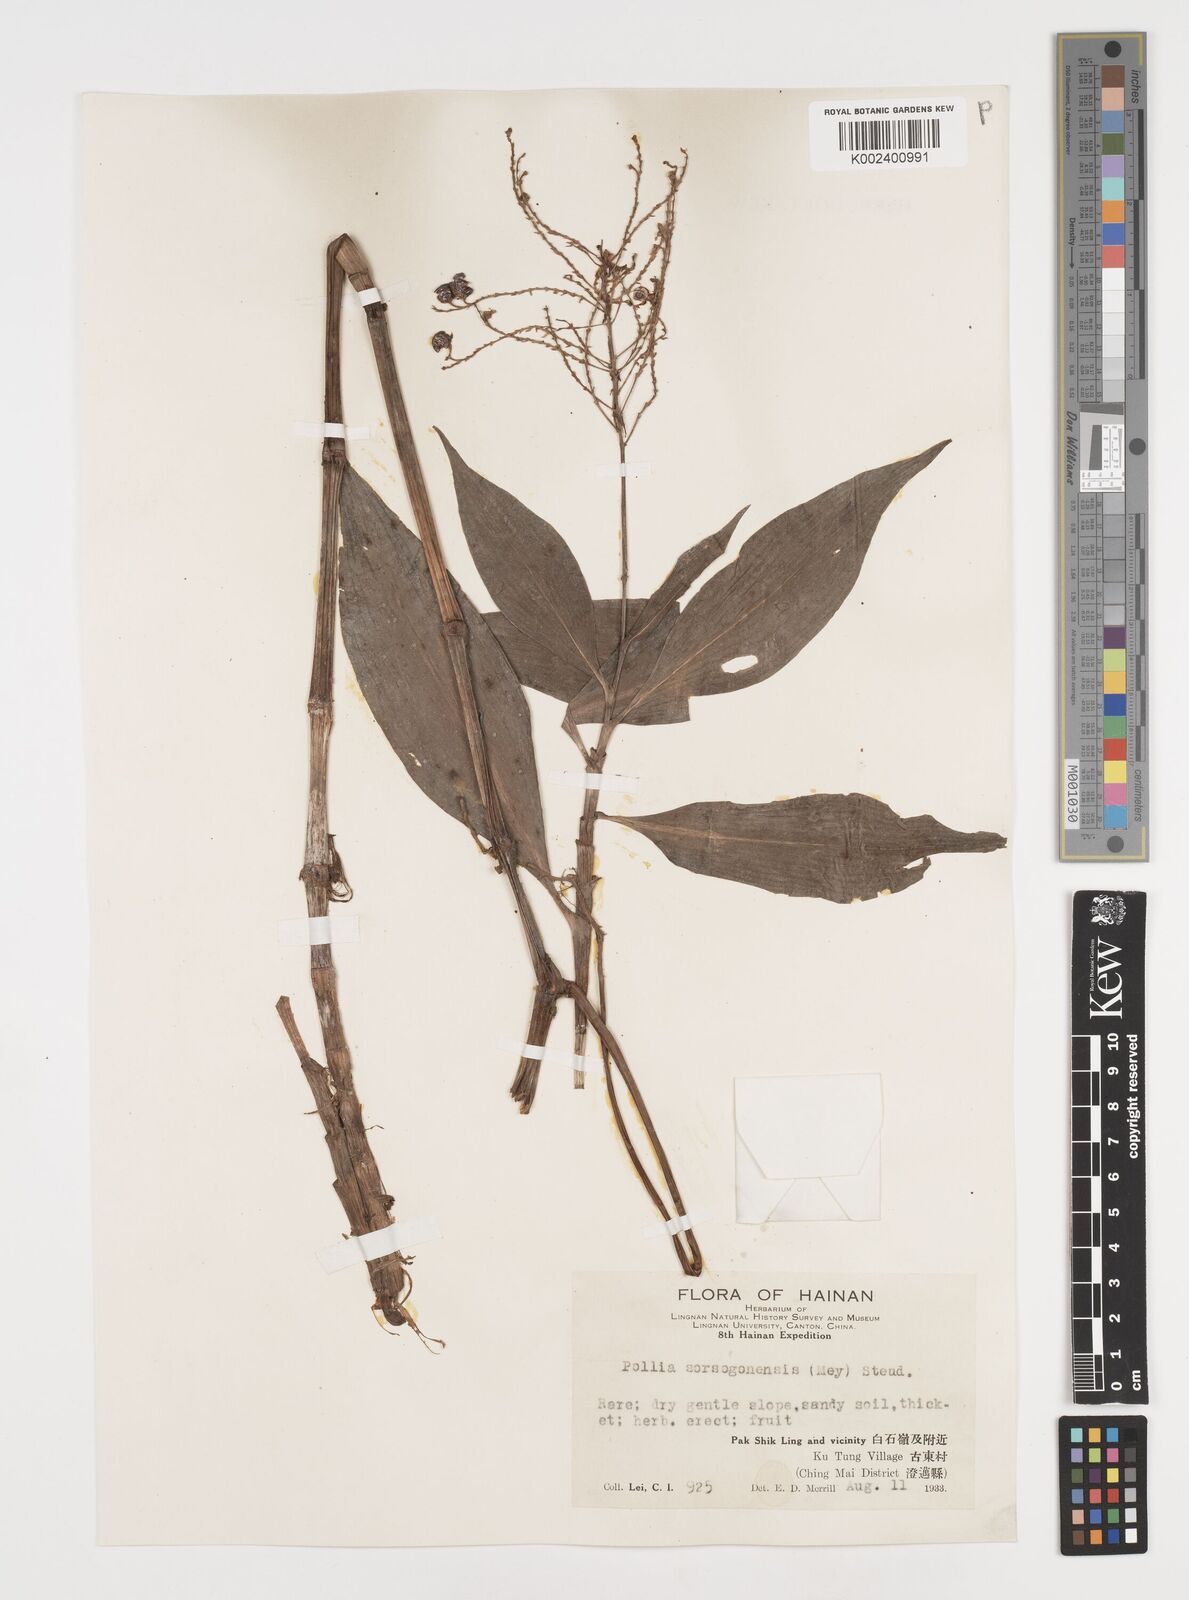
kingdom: Plantae
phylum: Tracheophyta
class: Liliopsida
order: Commelinales
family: Commelinaceae
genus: Pollia
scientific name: Pollia secundiflora
